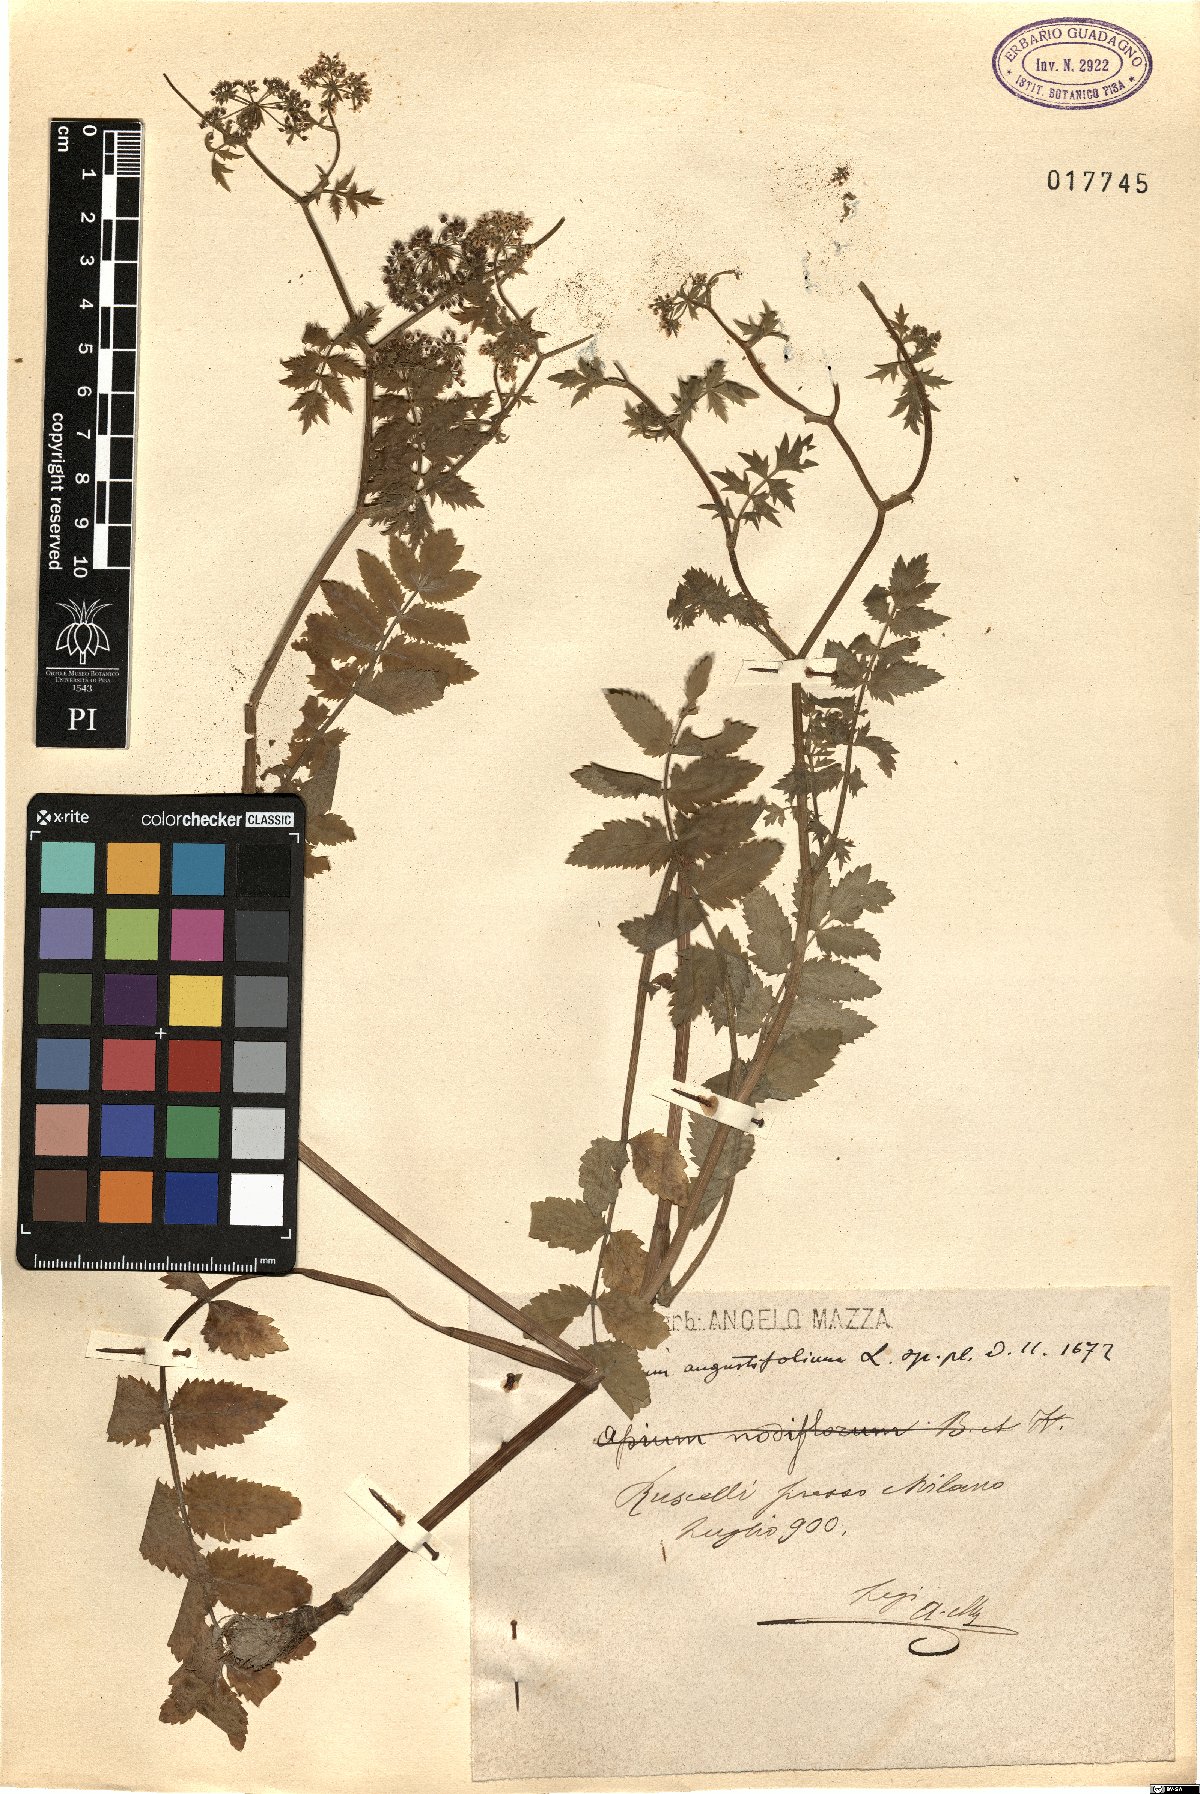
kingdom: Plantae
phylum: Tracheophyta
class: Magnoliopsida
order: Apiales
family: Apiaceae
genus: Berula
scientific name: Berula erecta
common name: Lesser water-parsnip
